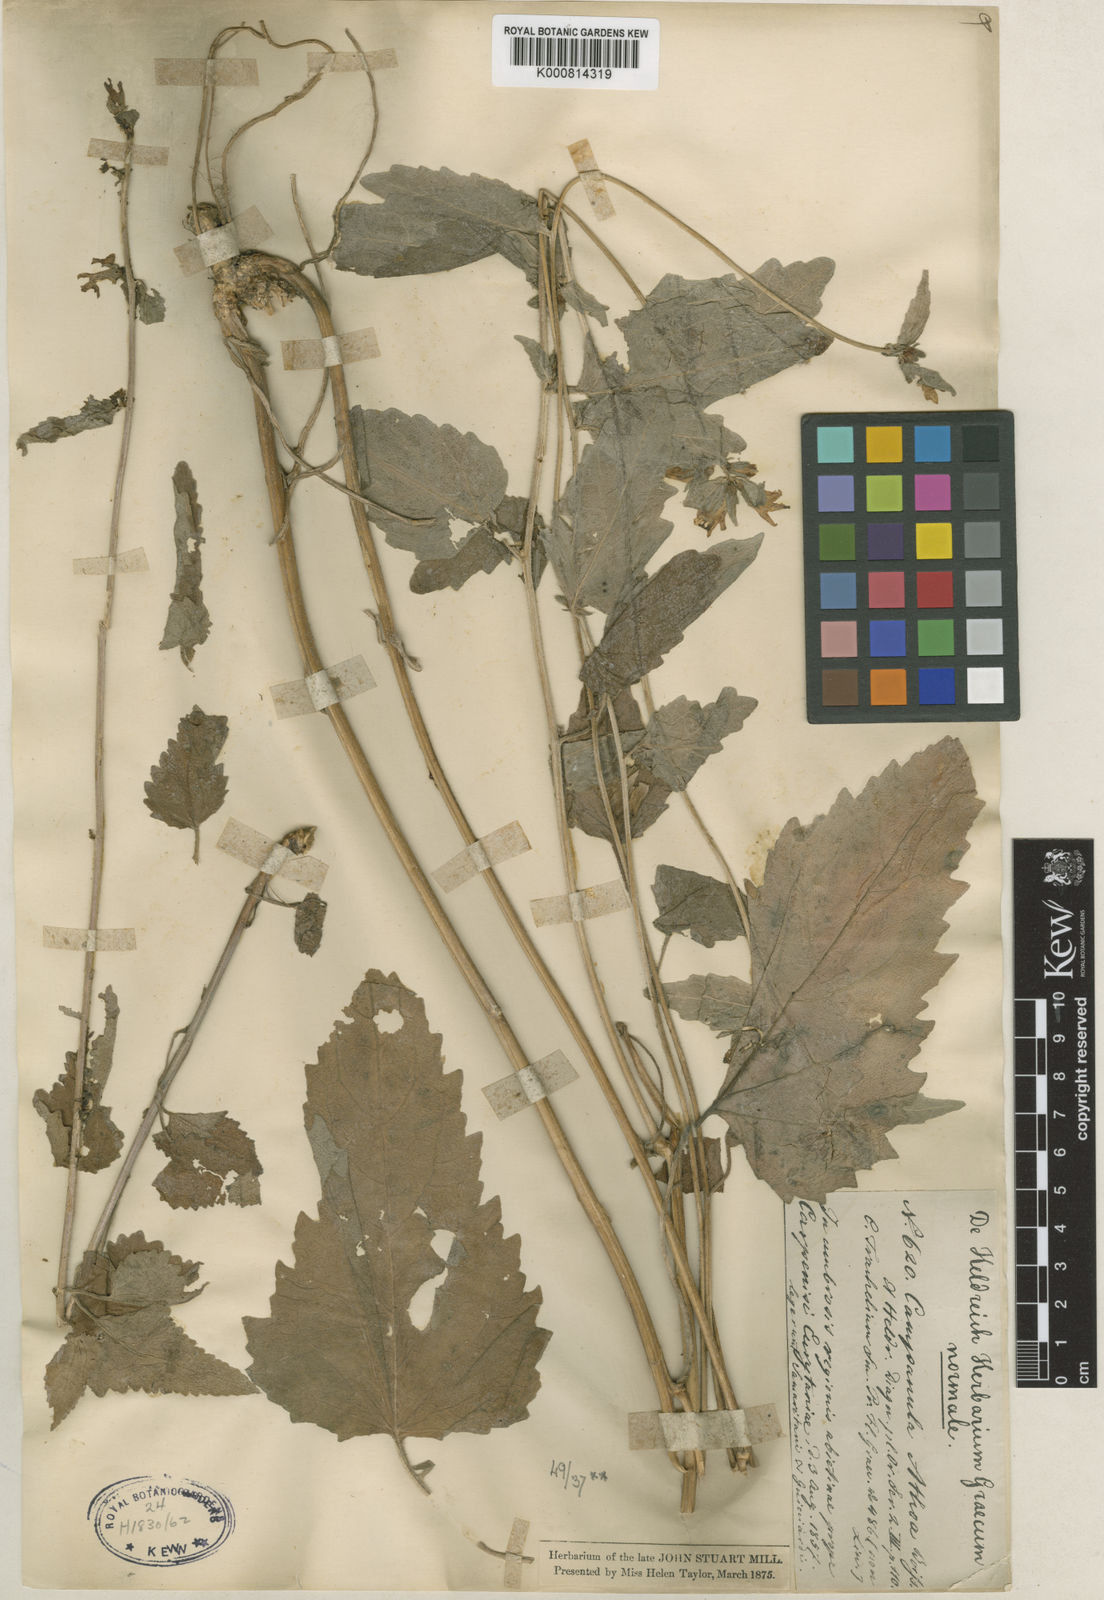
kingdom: Plantae
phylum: Tracheophyta
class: Magnoliopsida
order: Asterales
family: Campanulaceae
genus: Campanula
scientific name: Campanula trachelium
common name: Nettle-leaved bellflower
